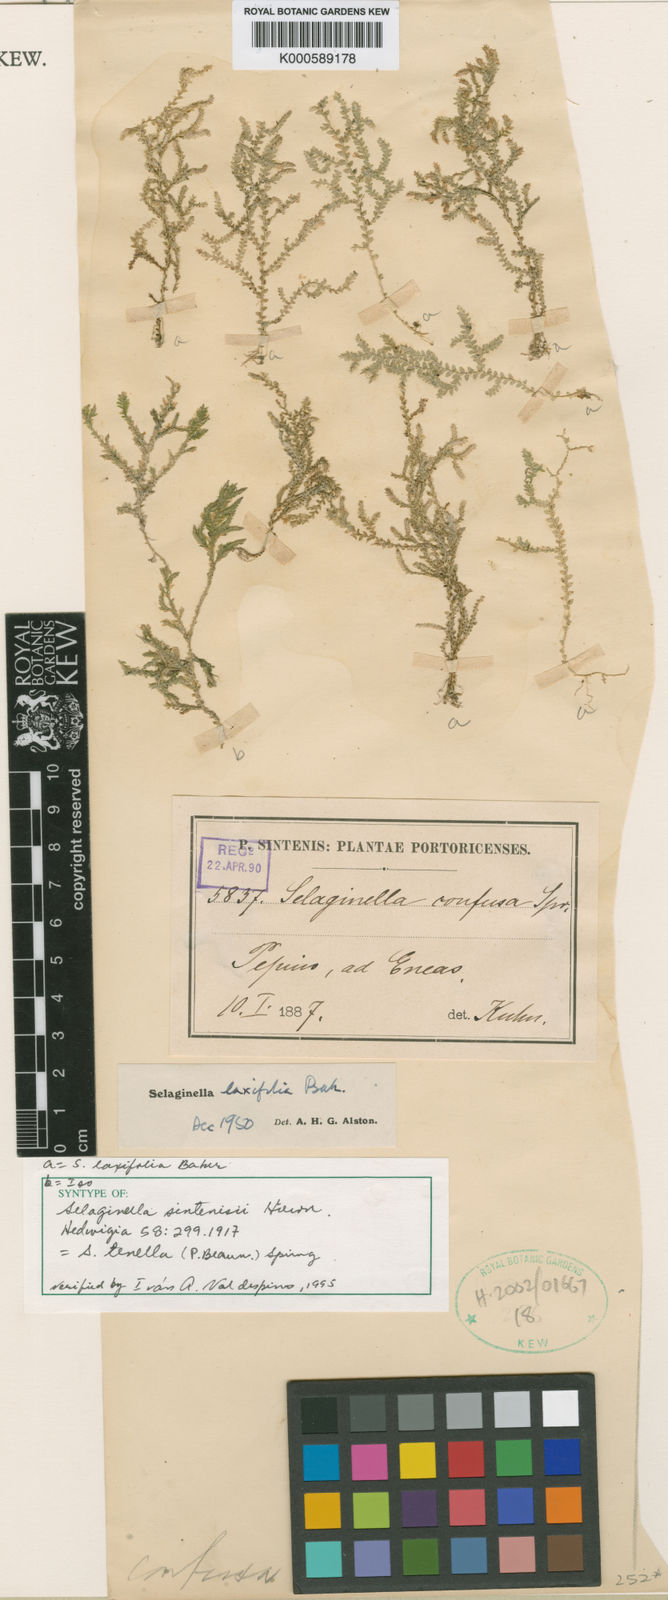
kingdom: Plantae
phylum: Tracheophyta
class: Lycopodiopsida
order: Selaginellales
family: Selaginellaceae
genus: Selaginella
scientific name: Selaginella tenella
